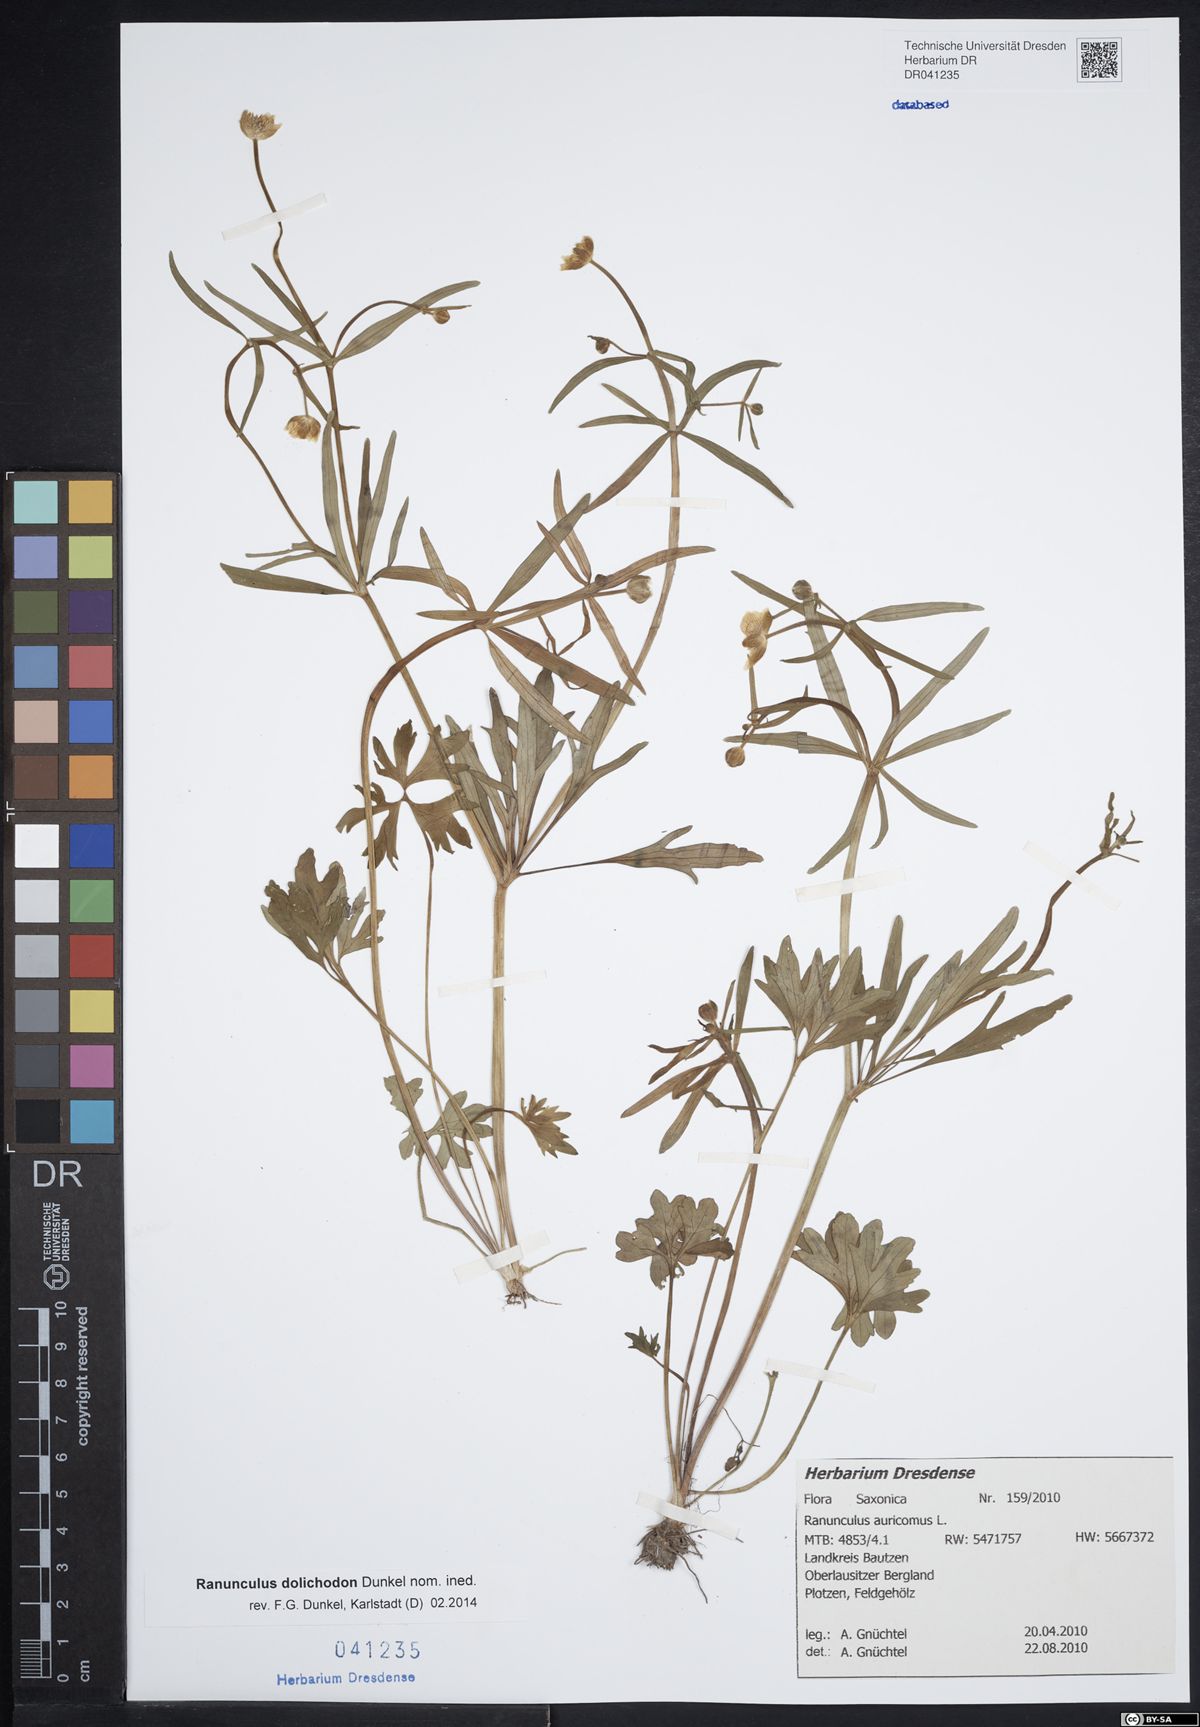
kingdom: Plantae
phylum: Tracheophyta
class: Magnoliopsida
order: Ranunculales
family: Ranunculaceae
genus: Ranunculus
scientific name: Ranunculus auricomus
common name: Goldilocks buttercup
